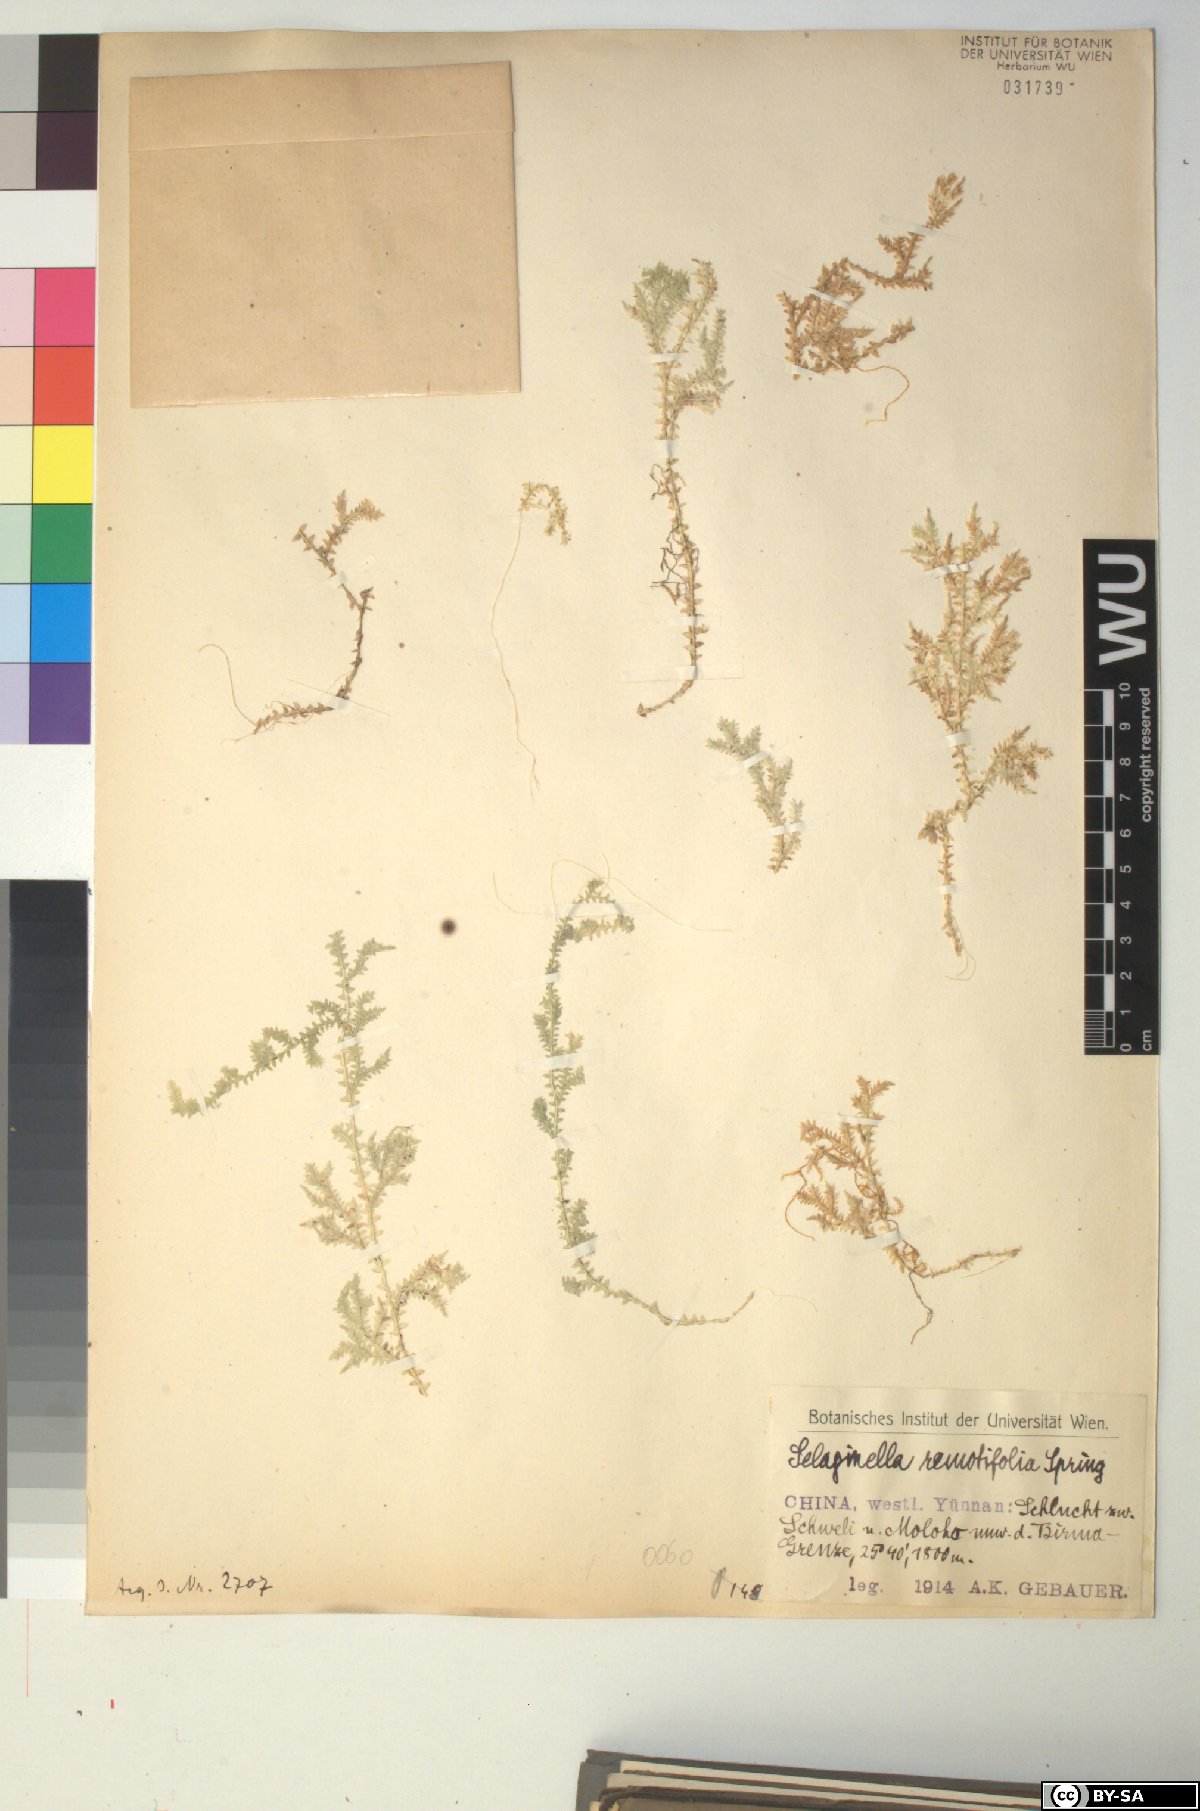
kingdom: Plantae
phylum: Tracheophyta
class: Lycopodiopsida
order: Selaginellales
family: Selaginellaceae
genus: Selaginella
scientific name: Selaginella remotifolia
